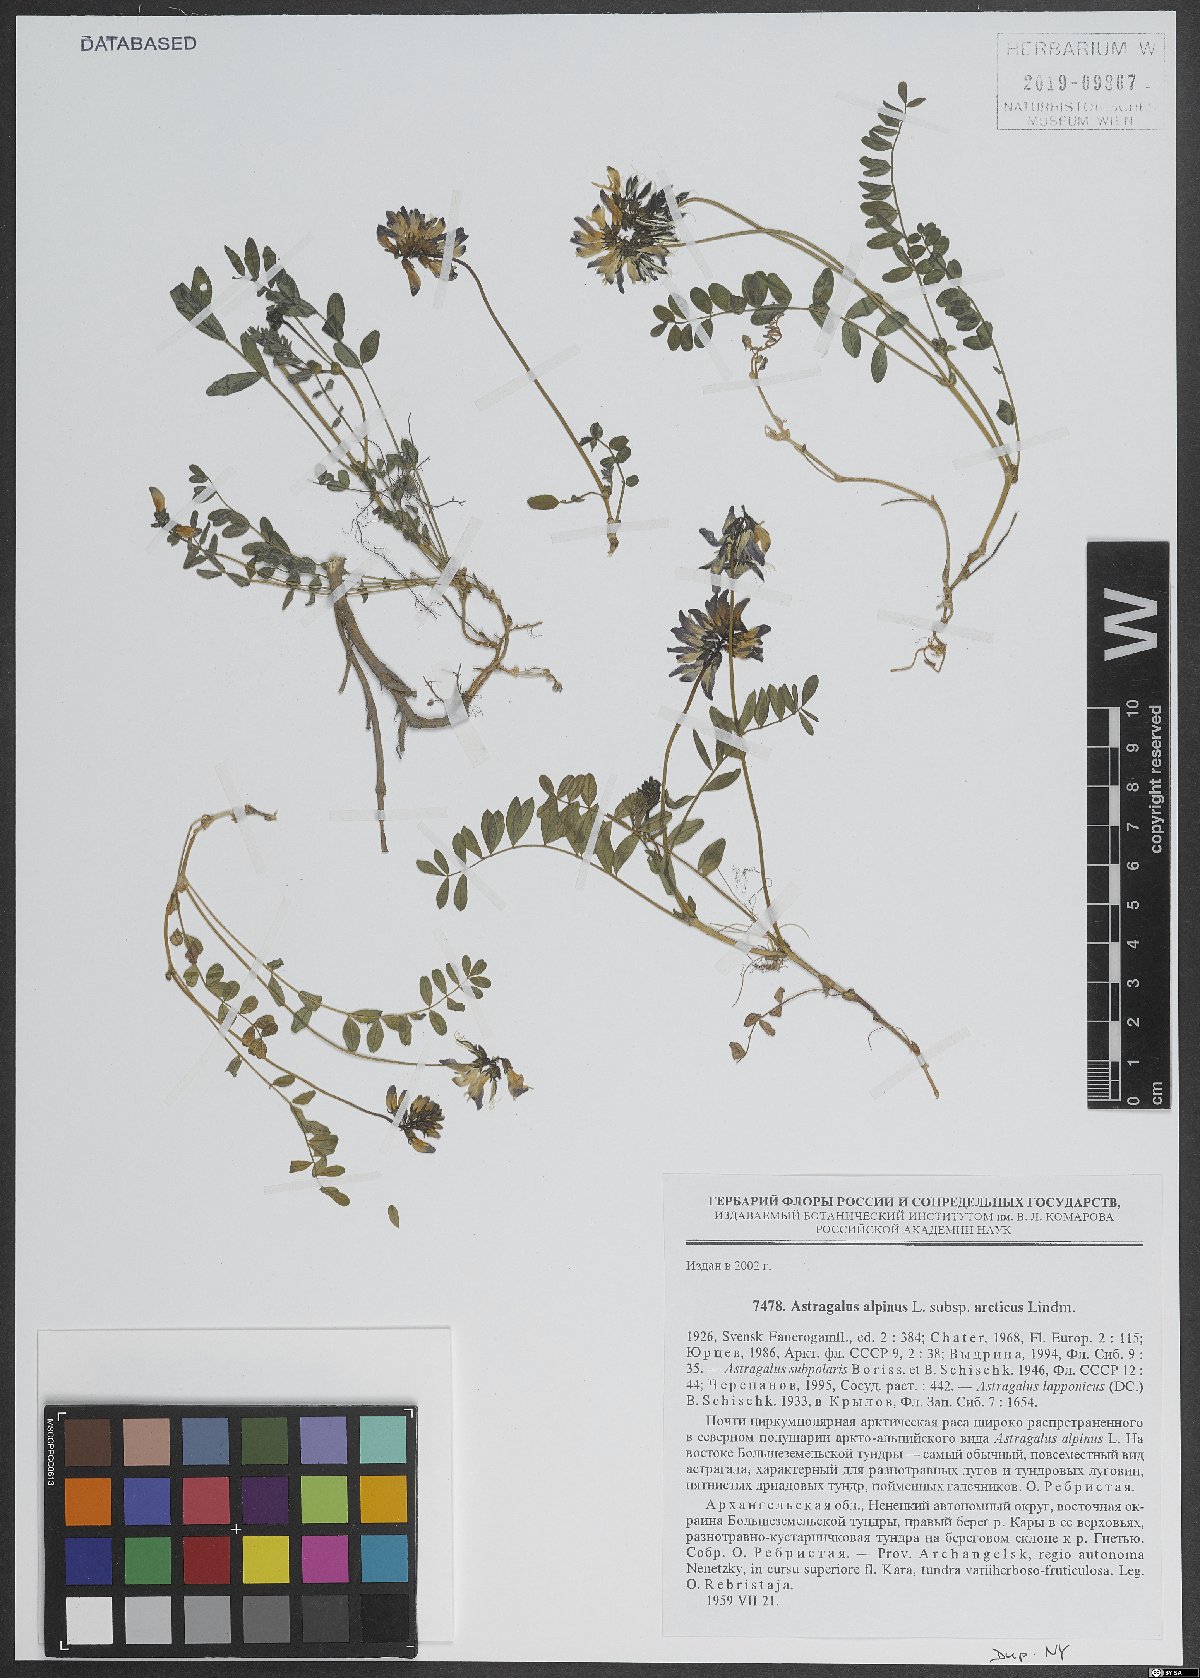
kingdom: Plantae
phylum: Tracheophyta
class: Magnoliopsida
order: Fabales
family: Fabaceae
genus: Astragalus
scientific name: Astragalus alpinus
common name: Alpine milk-vetch
